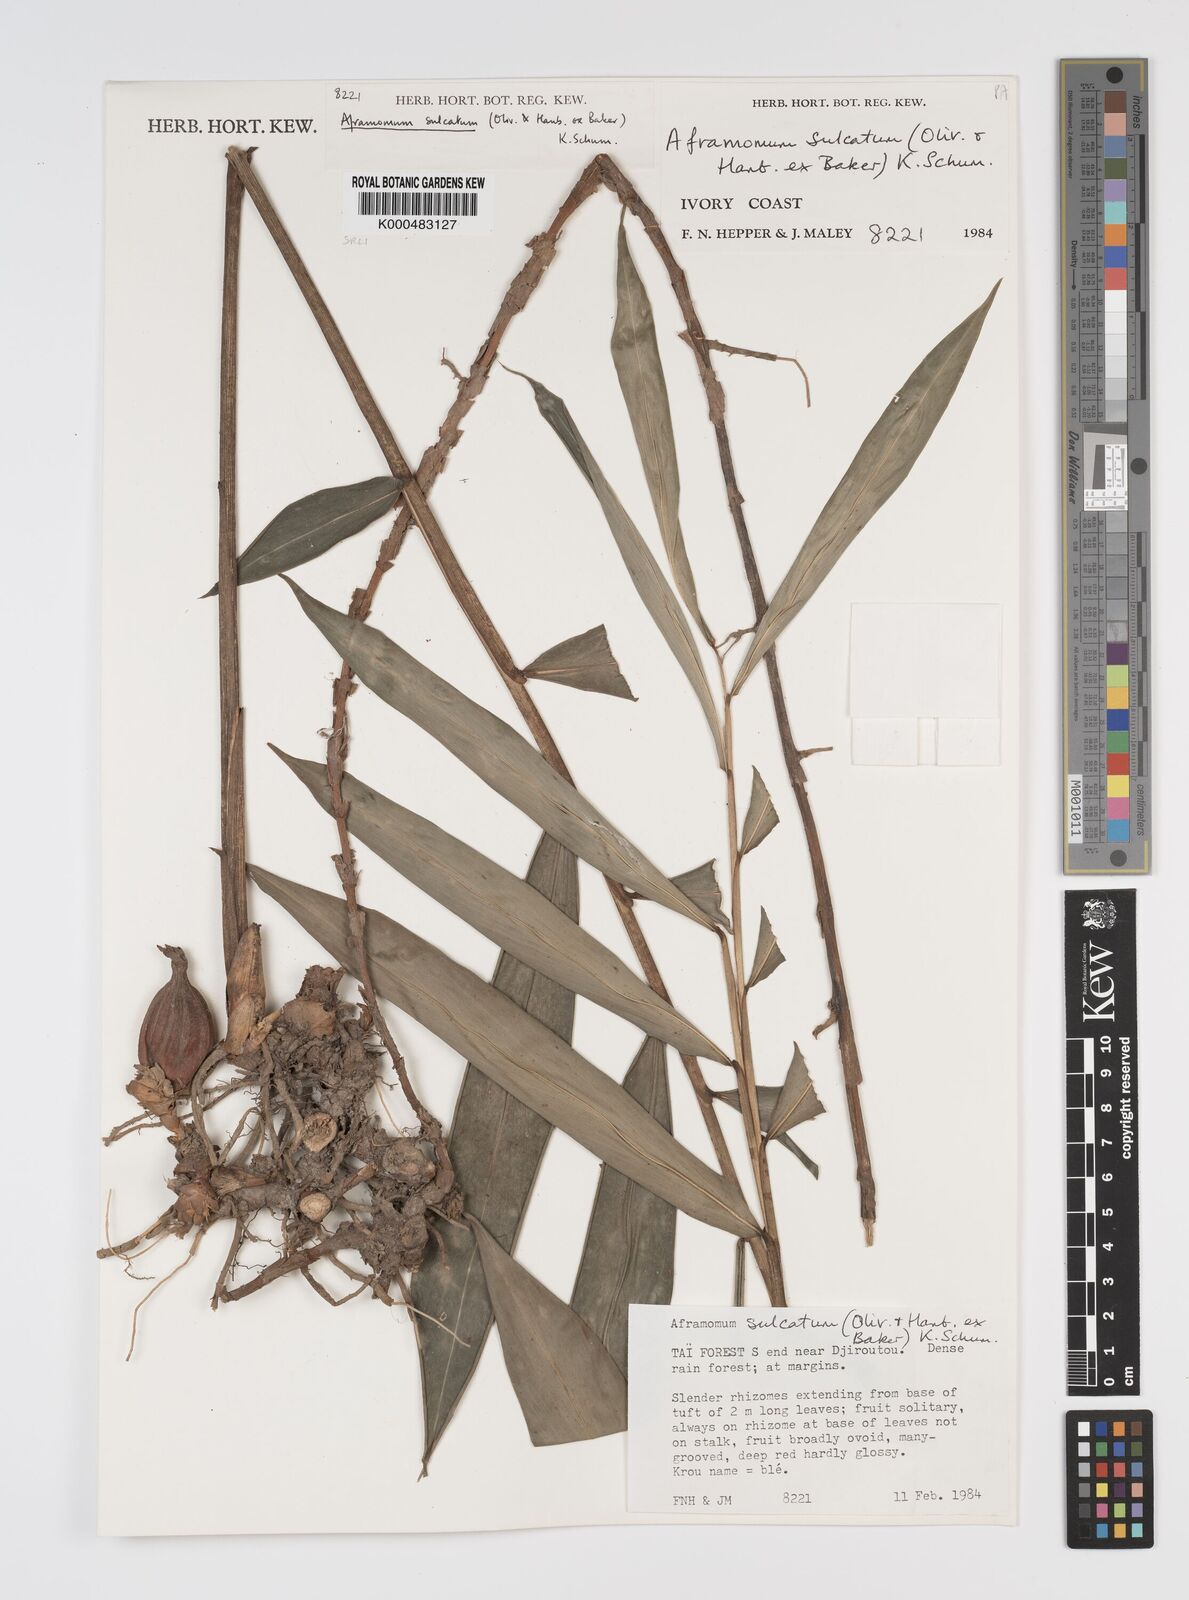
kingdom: Plantae
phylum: Tracheophyta
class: Liliopsida
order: Zingiberales
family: Zingiberaceae
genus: Aframomum
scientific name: Aframomum sulcatum
